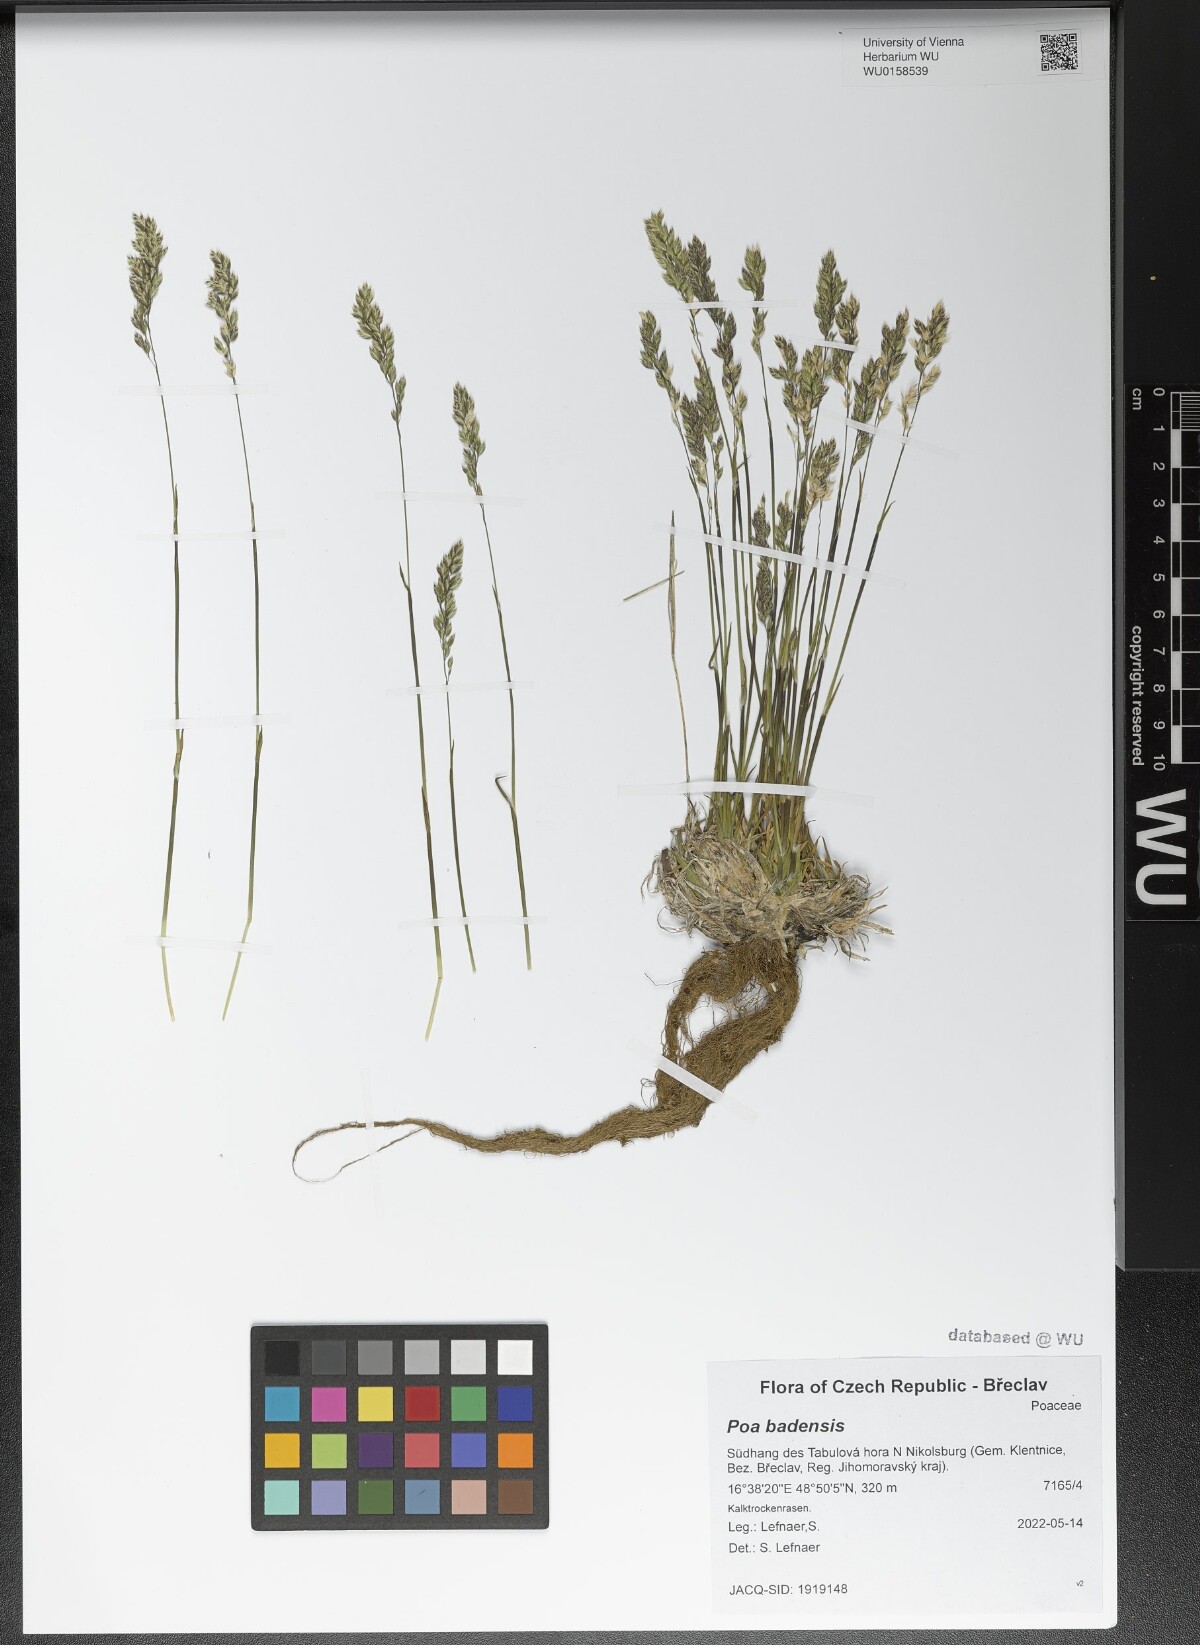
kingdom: Plantae
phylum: Tracheophyta
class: Liliopsida
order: Poales
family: Poaceae
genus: Poa
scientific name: Poa badensis
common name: Baden's bluegrass
